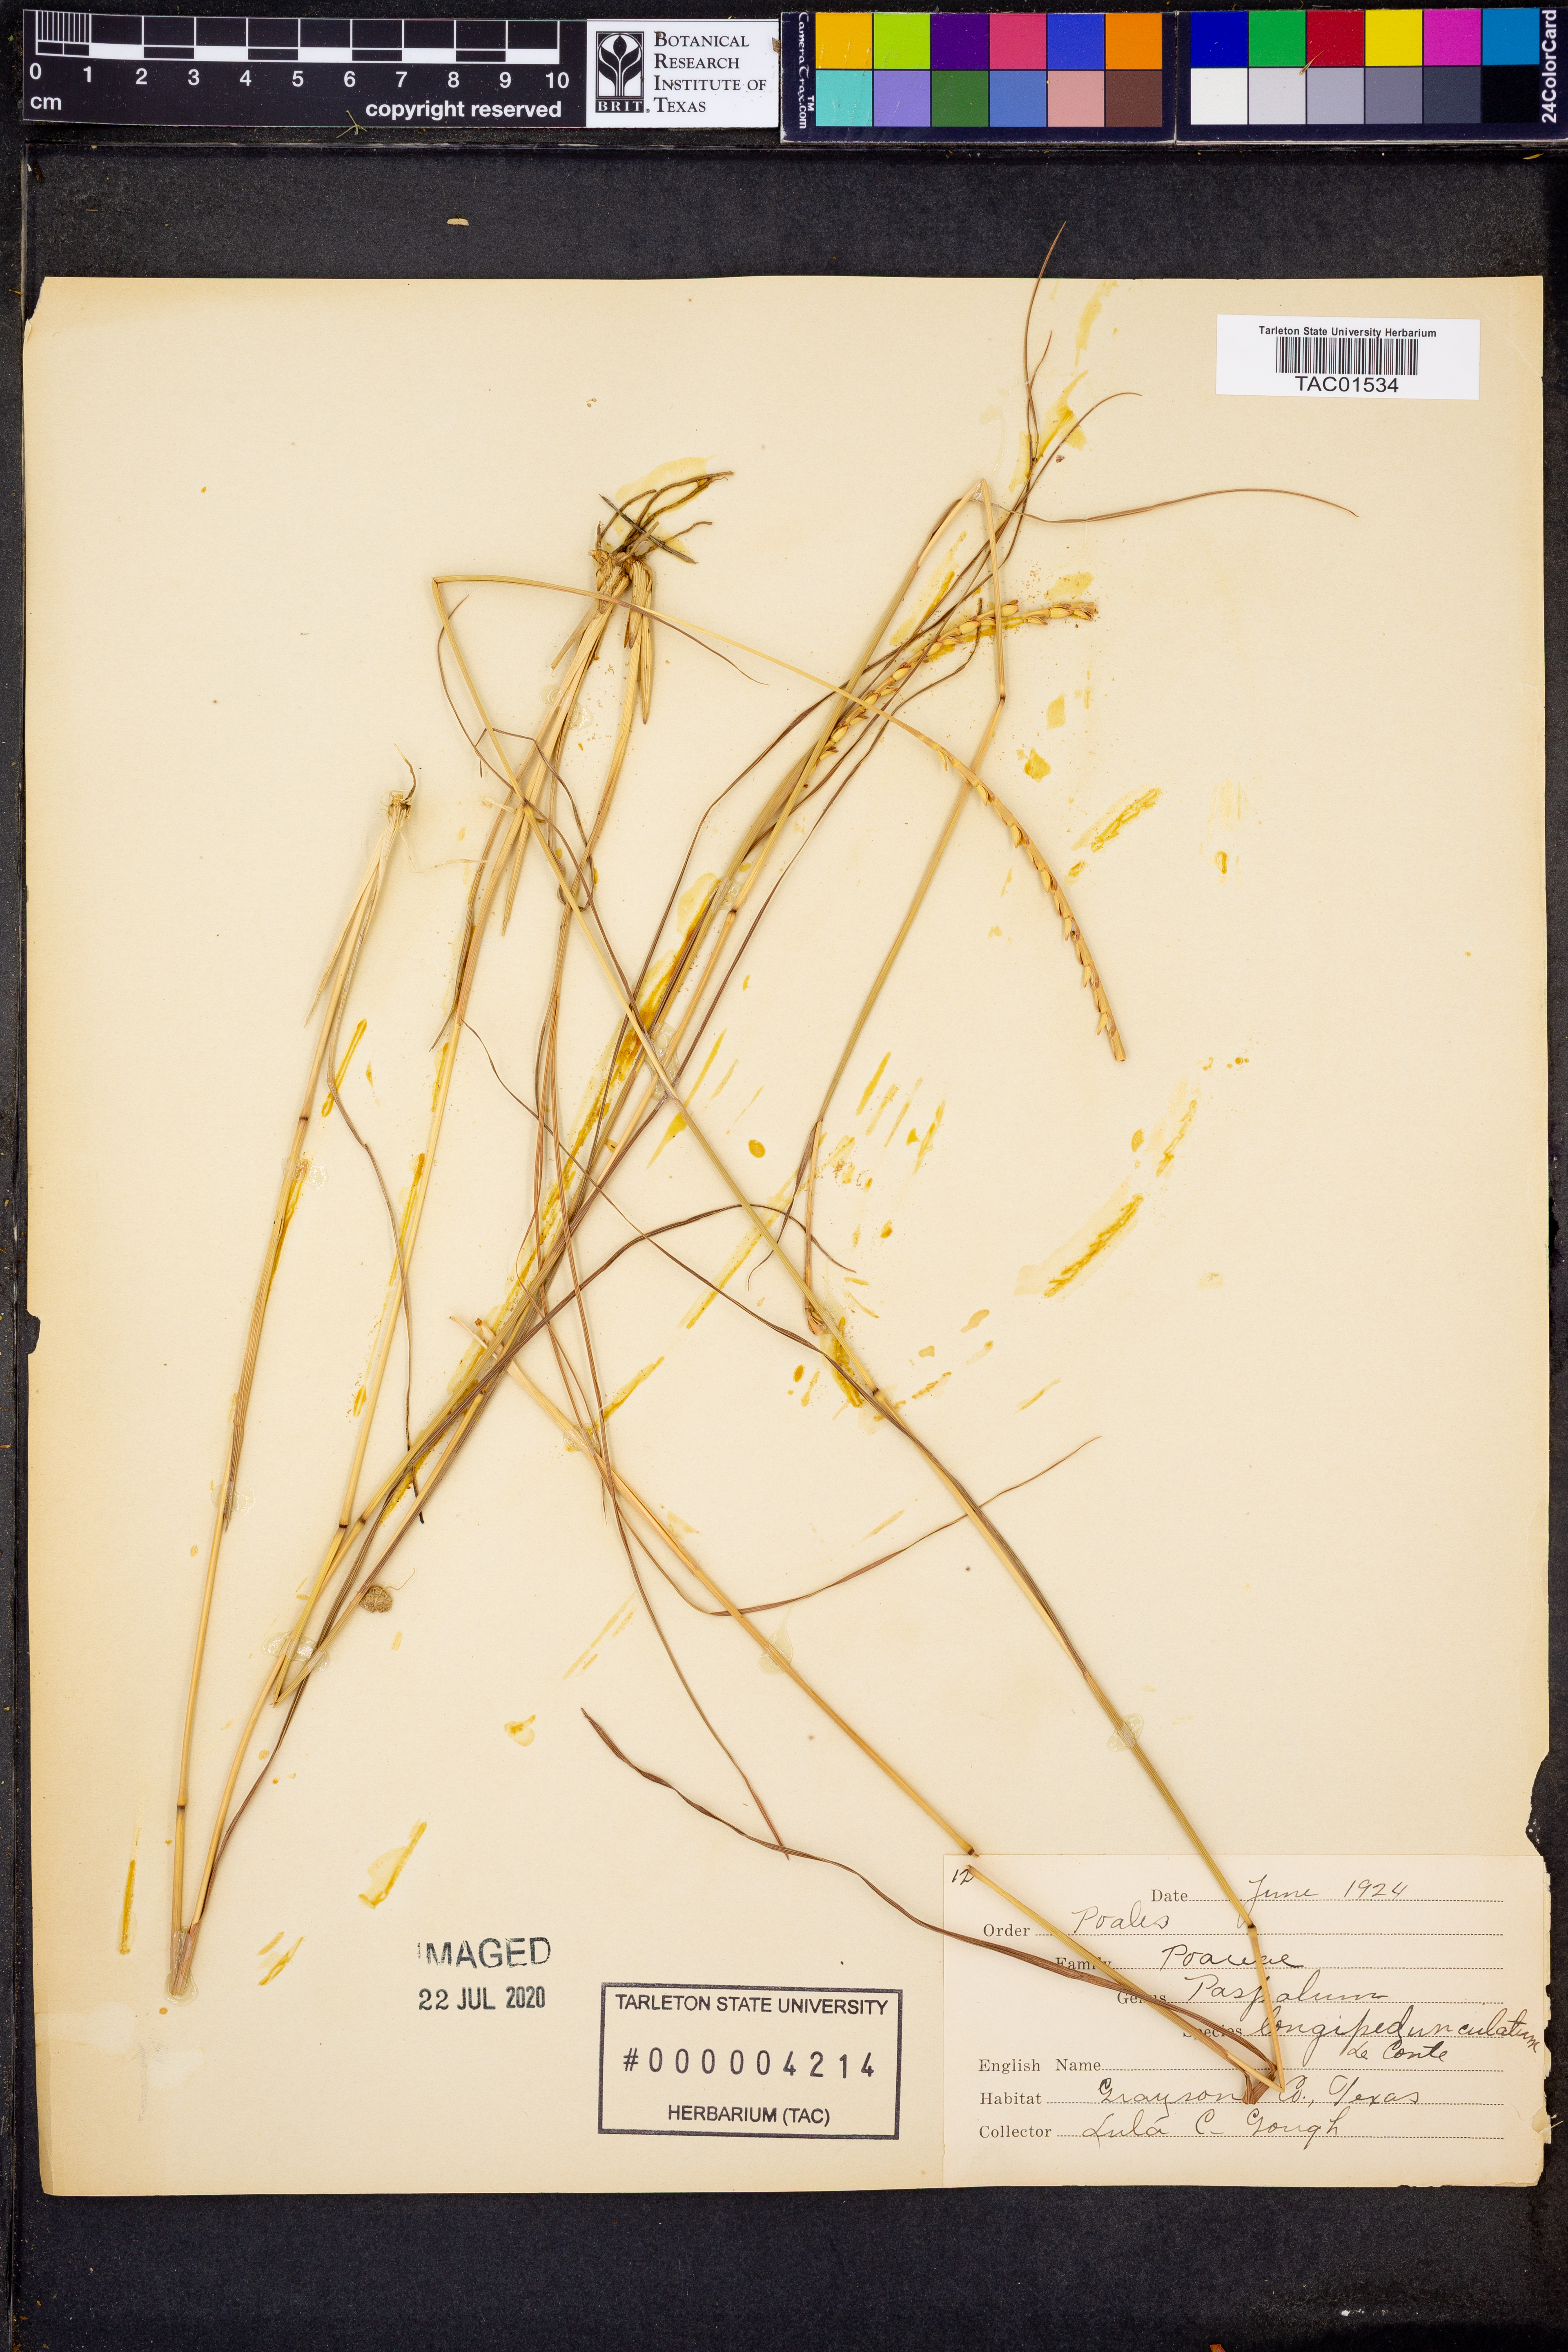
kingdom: Plantae
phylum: Tracheophyta
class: Liliopsida
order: Poales
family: Poaceae
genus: Paspalum
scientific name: Paspalum longipedunculatum
